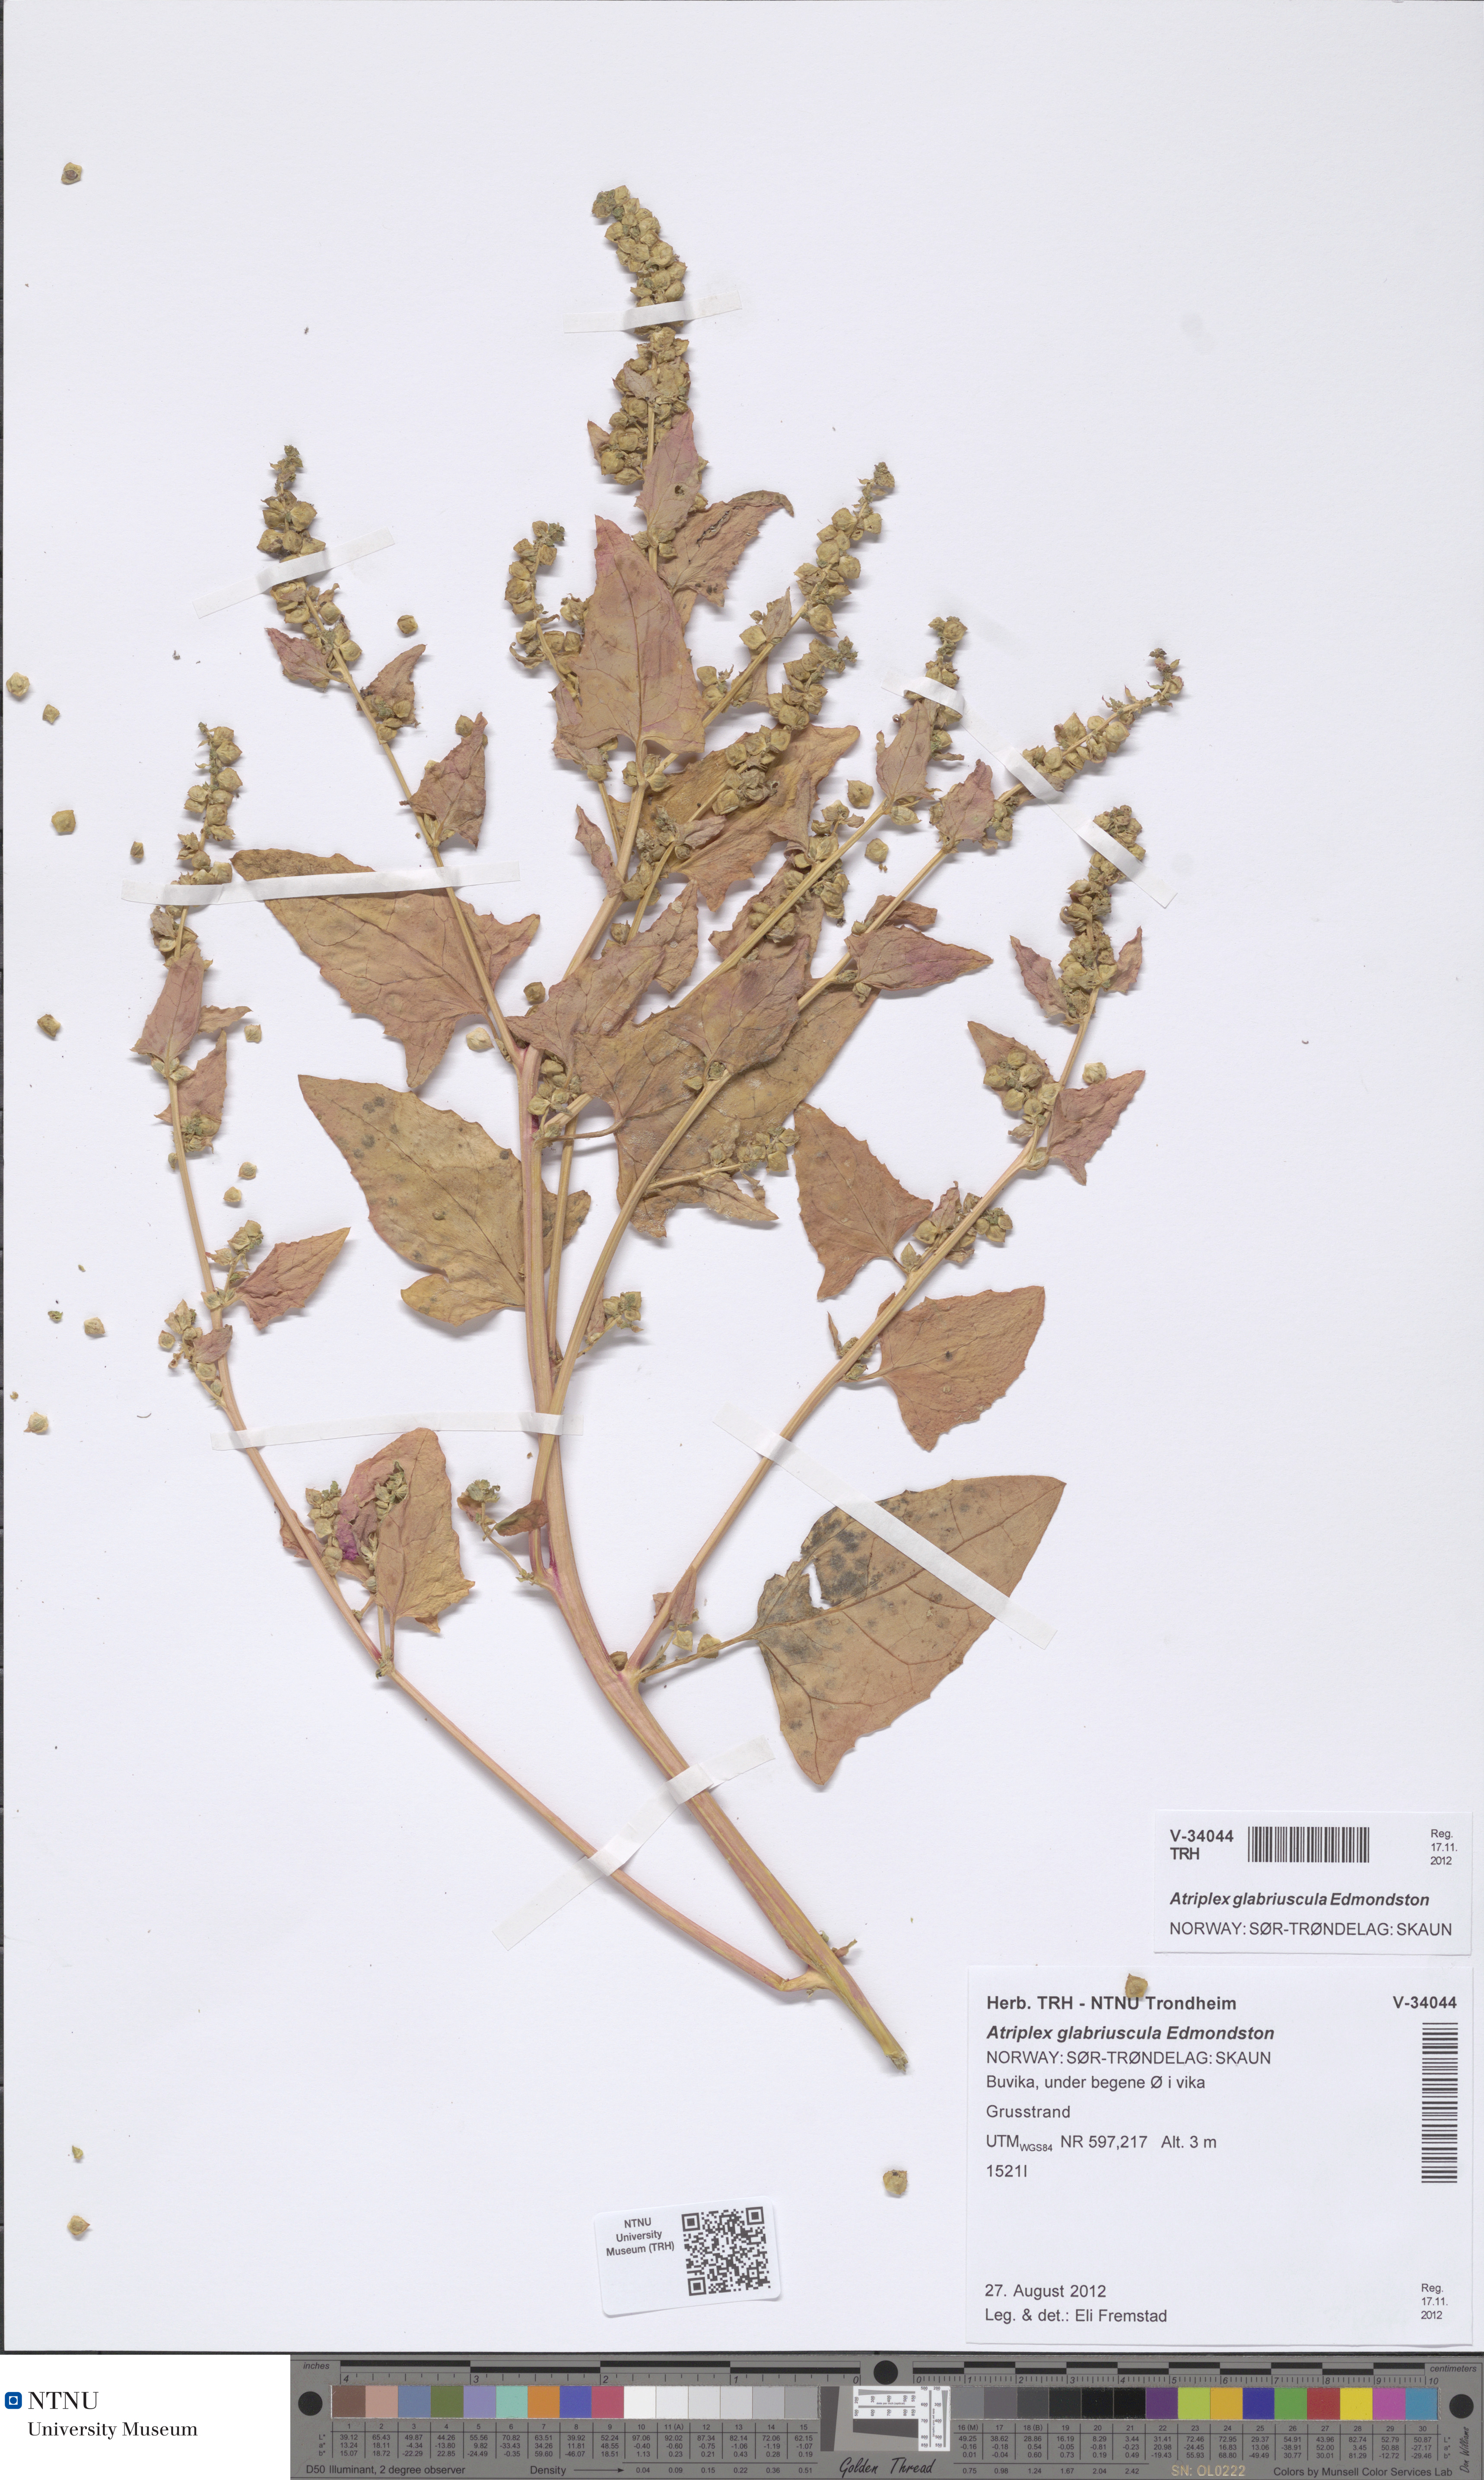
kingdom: Plantae
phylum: Tracheophyta
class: Magnoliopsida
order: Caryophyllales
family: Amaranthaceae
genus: Atriplex
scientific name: Atriplex glabriuscula
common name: Babington's orache
